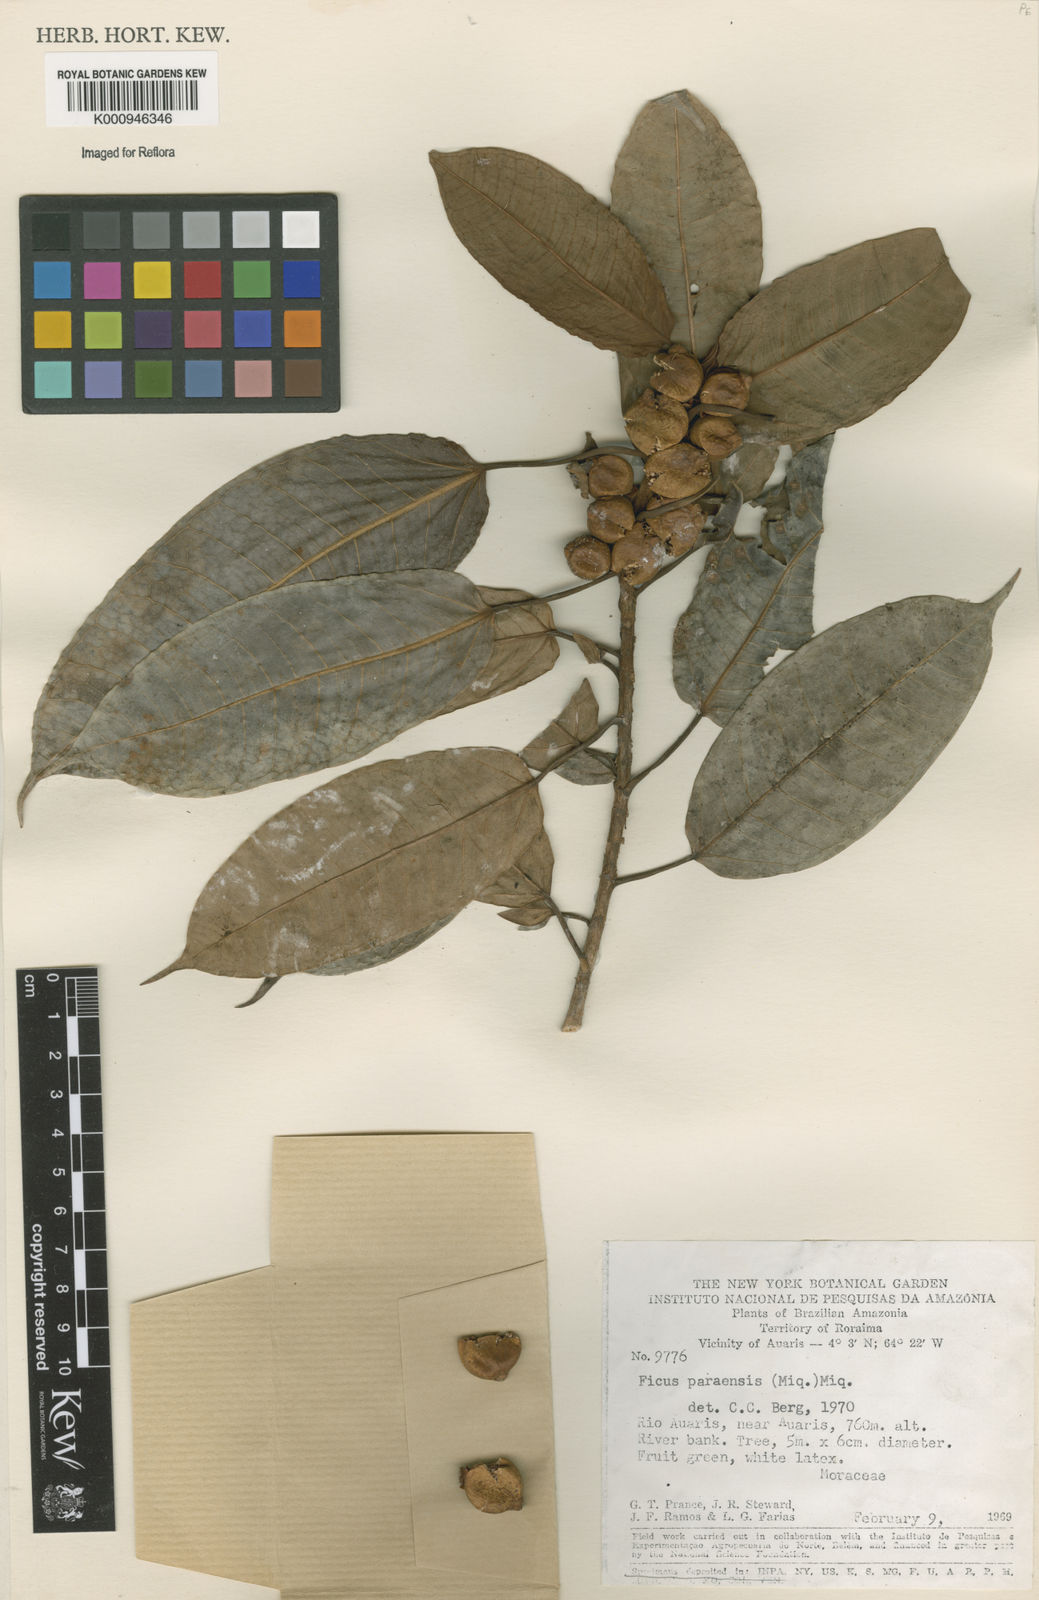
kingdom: Plantae
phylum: Tracheophyta
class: Magnoliopsida
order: Rosales
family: Moraceae
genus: Ficus
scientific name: Ficus paraensis
